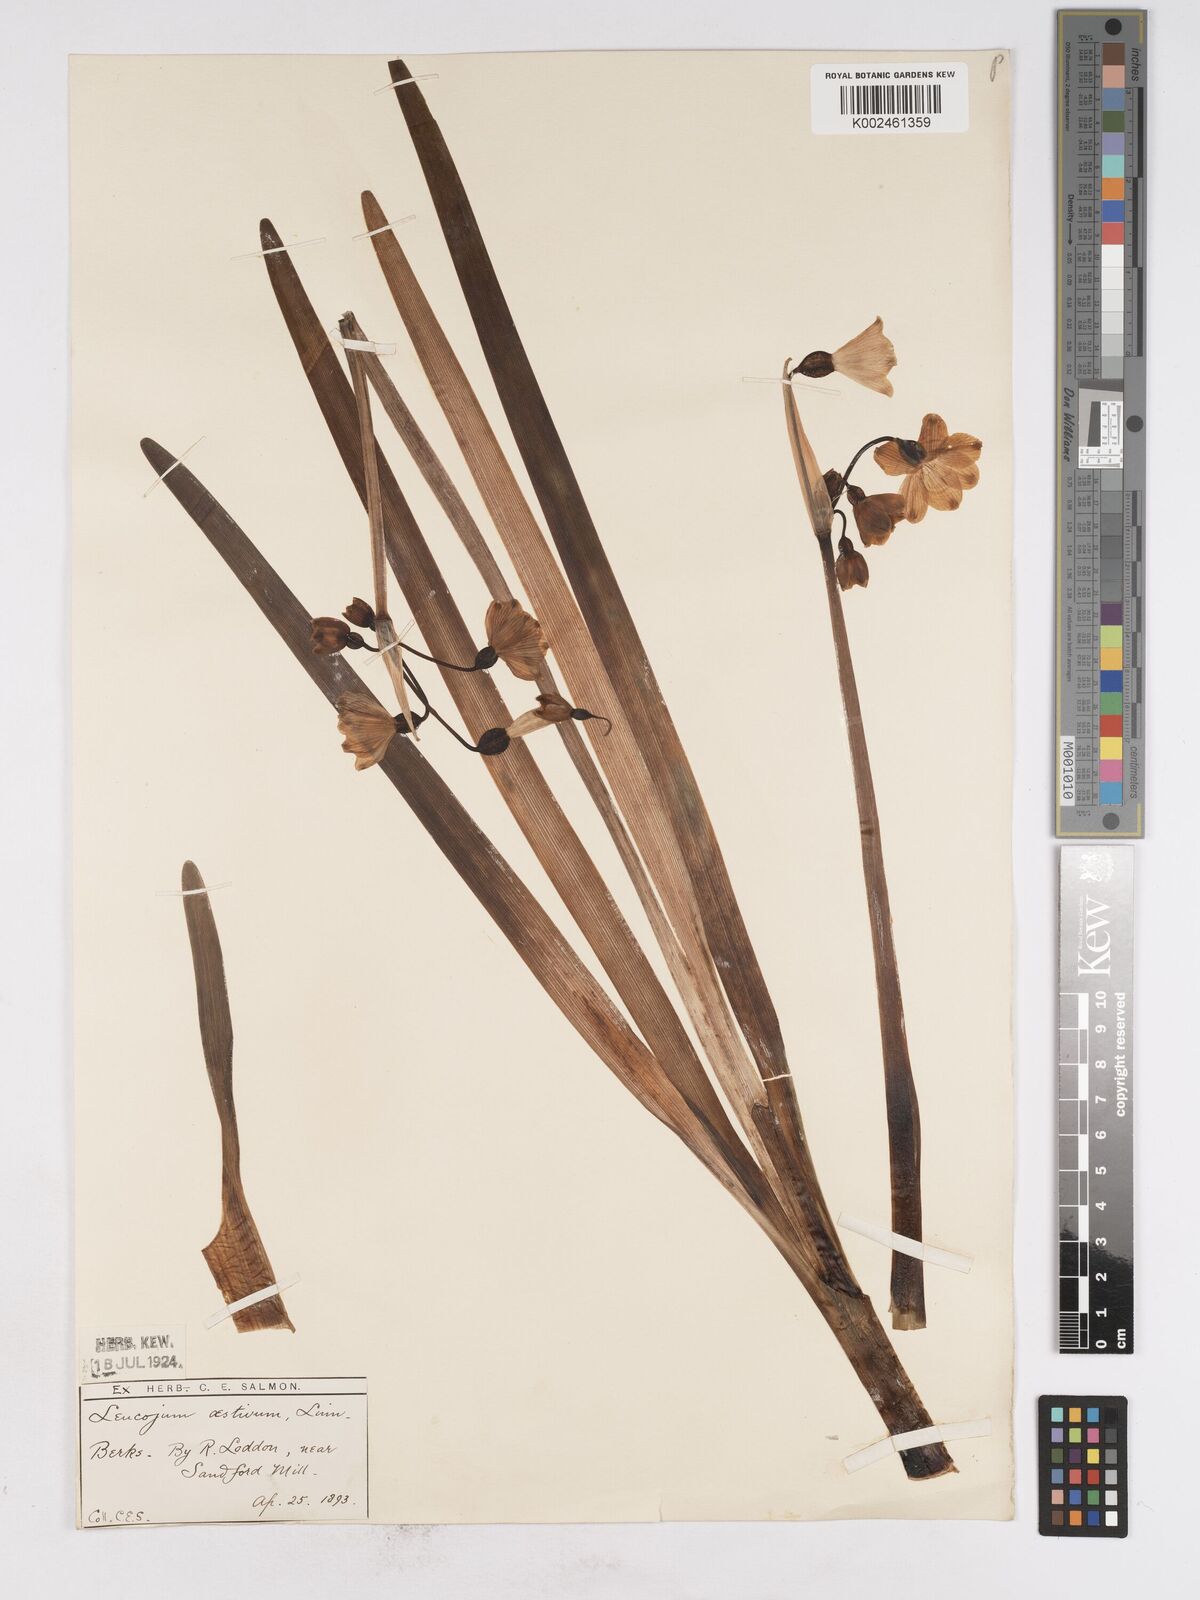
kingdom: Plantae
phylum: Tracheophyta
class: Liliopsida
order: Asparagales
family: Amaryllidaceae
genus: Leucojum
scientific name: Leucojum aestivum
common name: Summer snowflake
